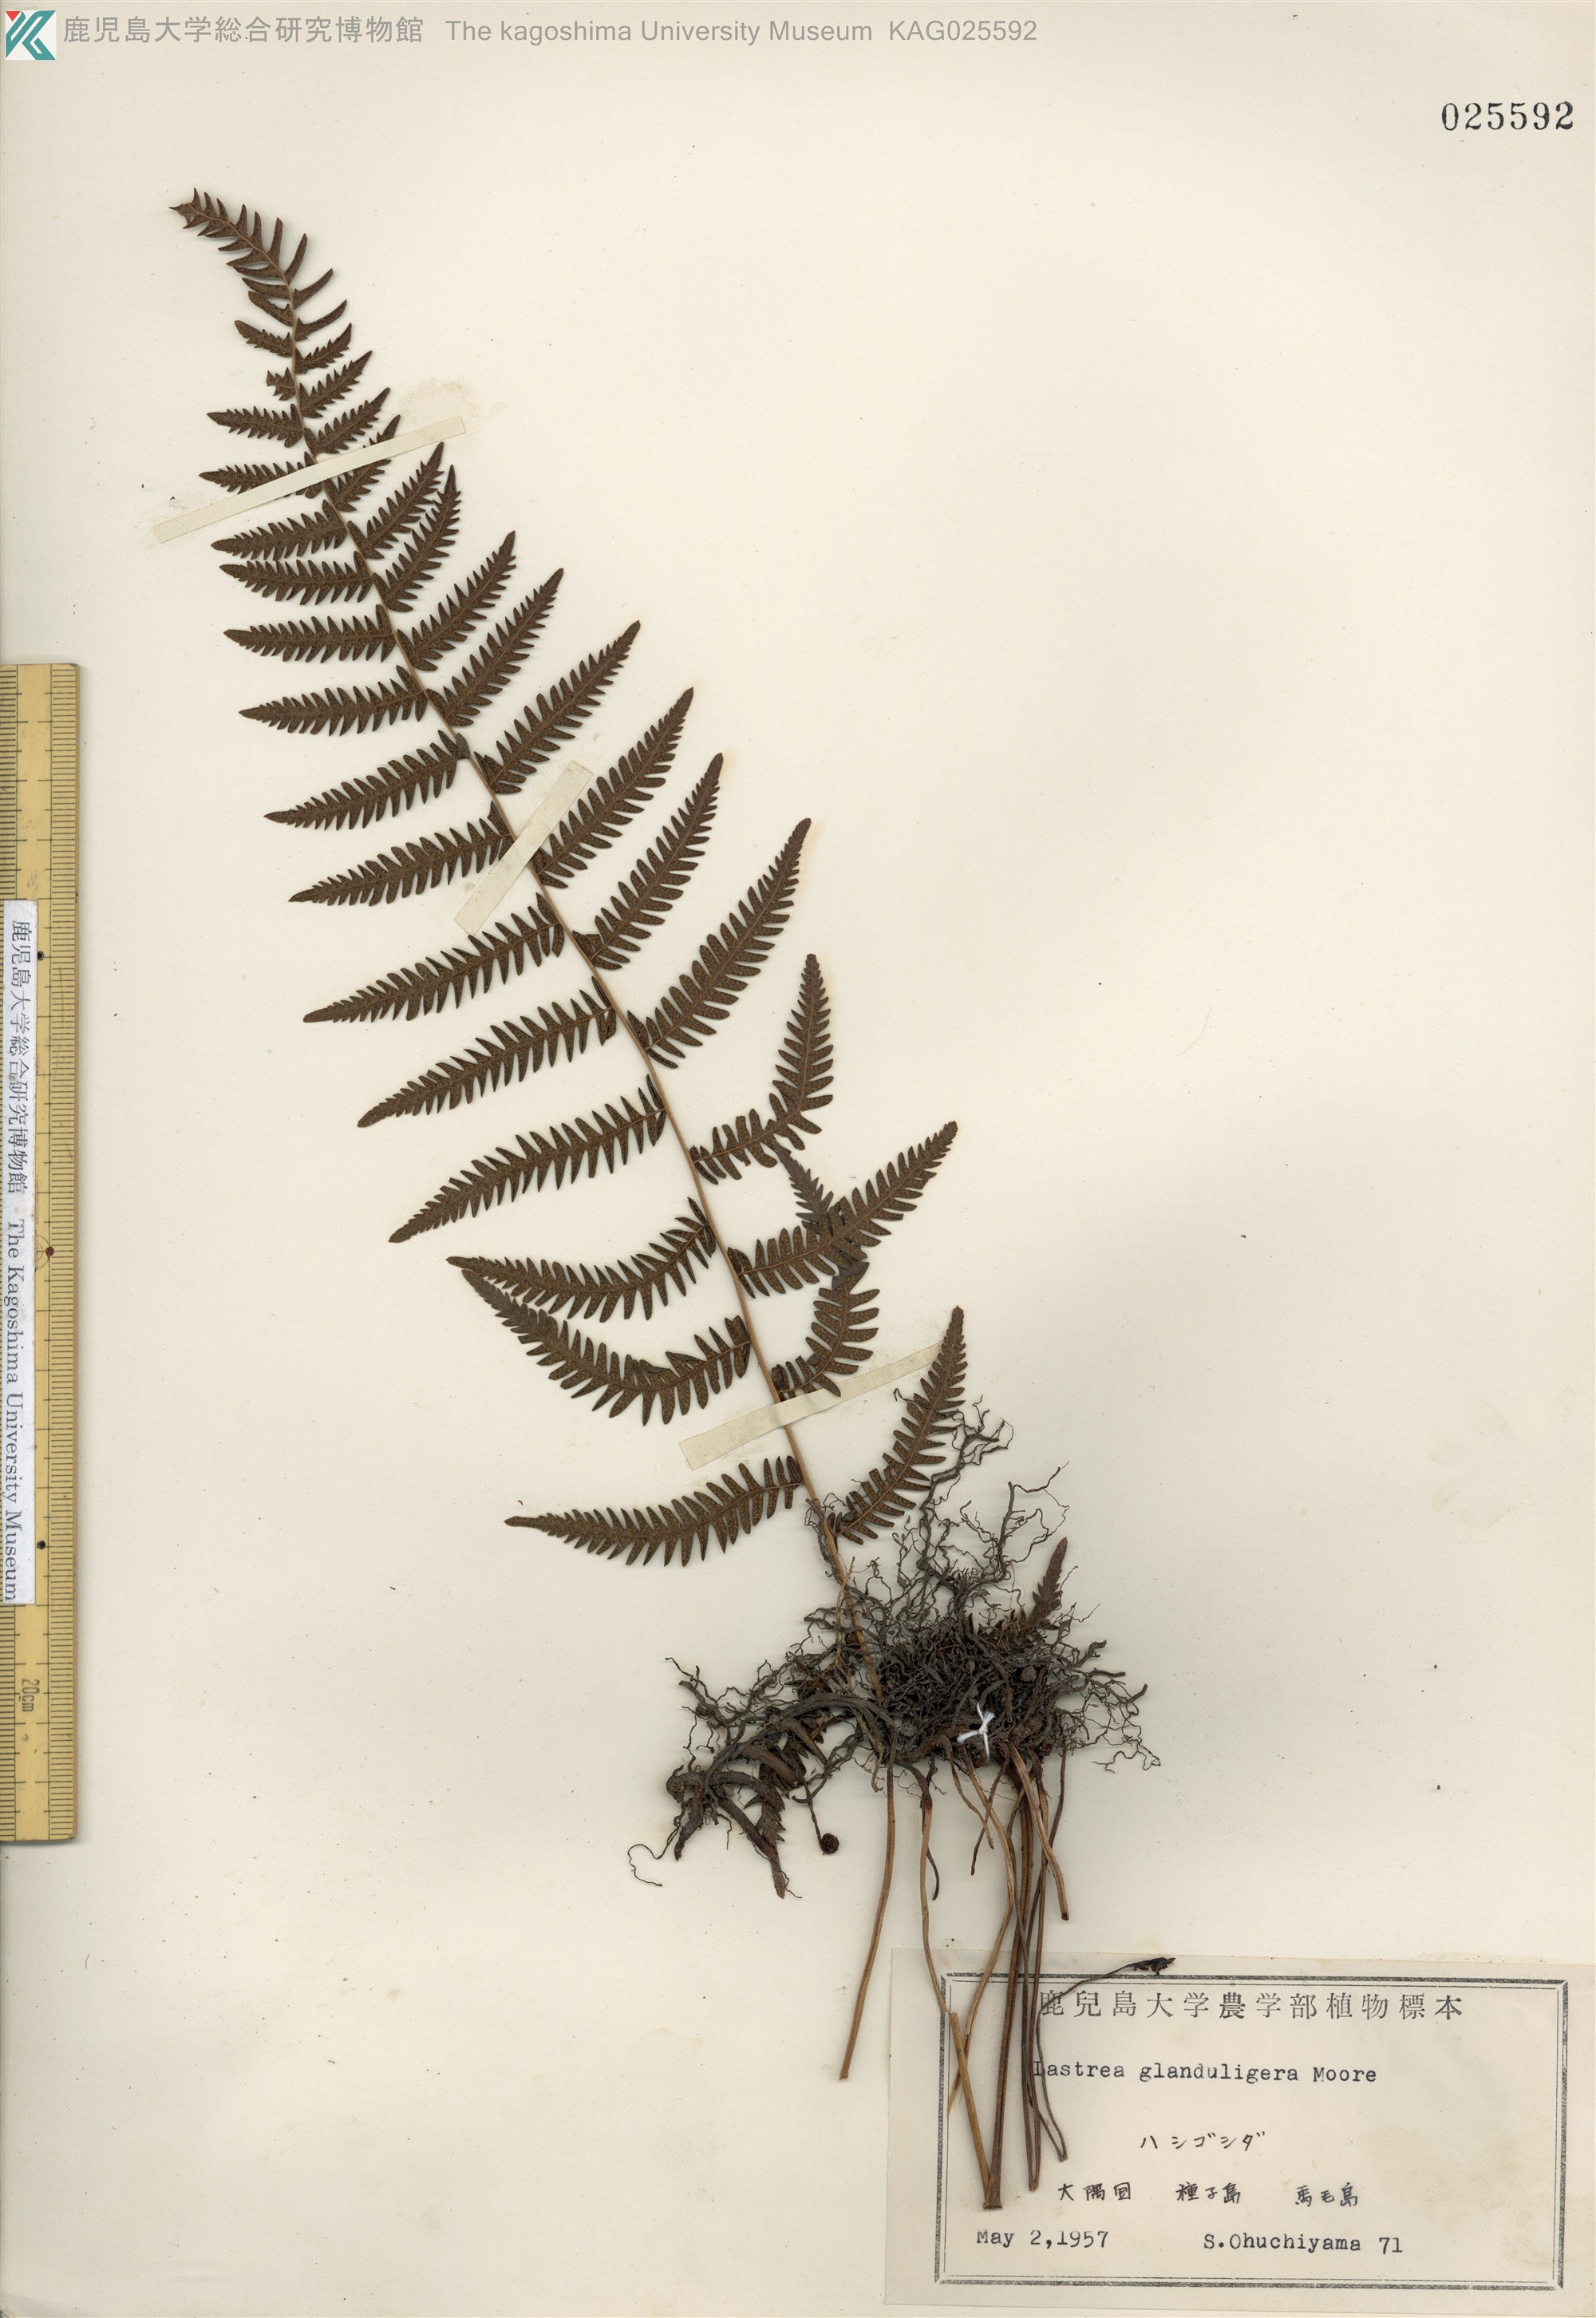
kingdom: Plantae
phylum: Tracheophyta
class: Polypodiopsida
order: Polypodiales
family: Thelypteridaceae
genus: Amauropelta
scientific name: Amauropelta glanduligera
